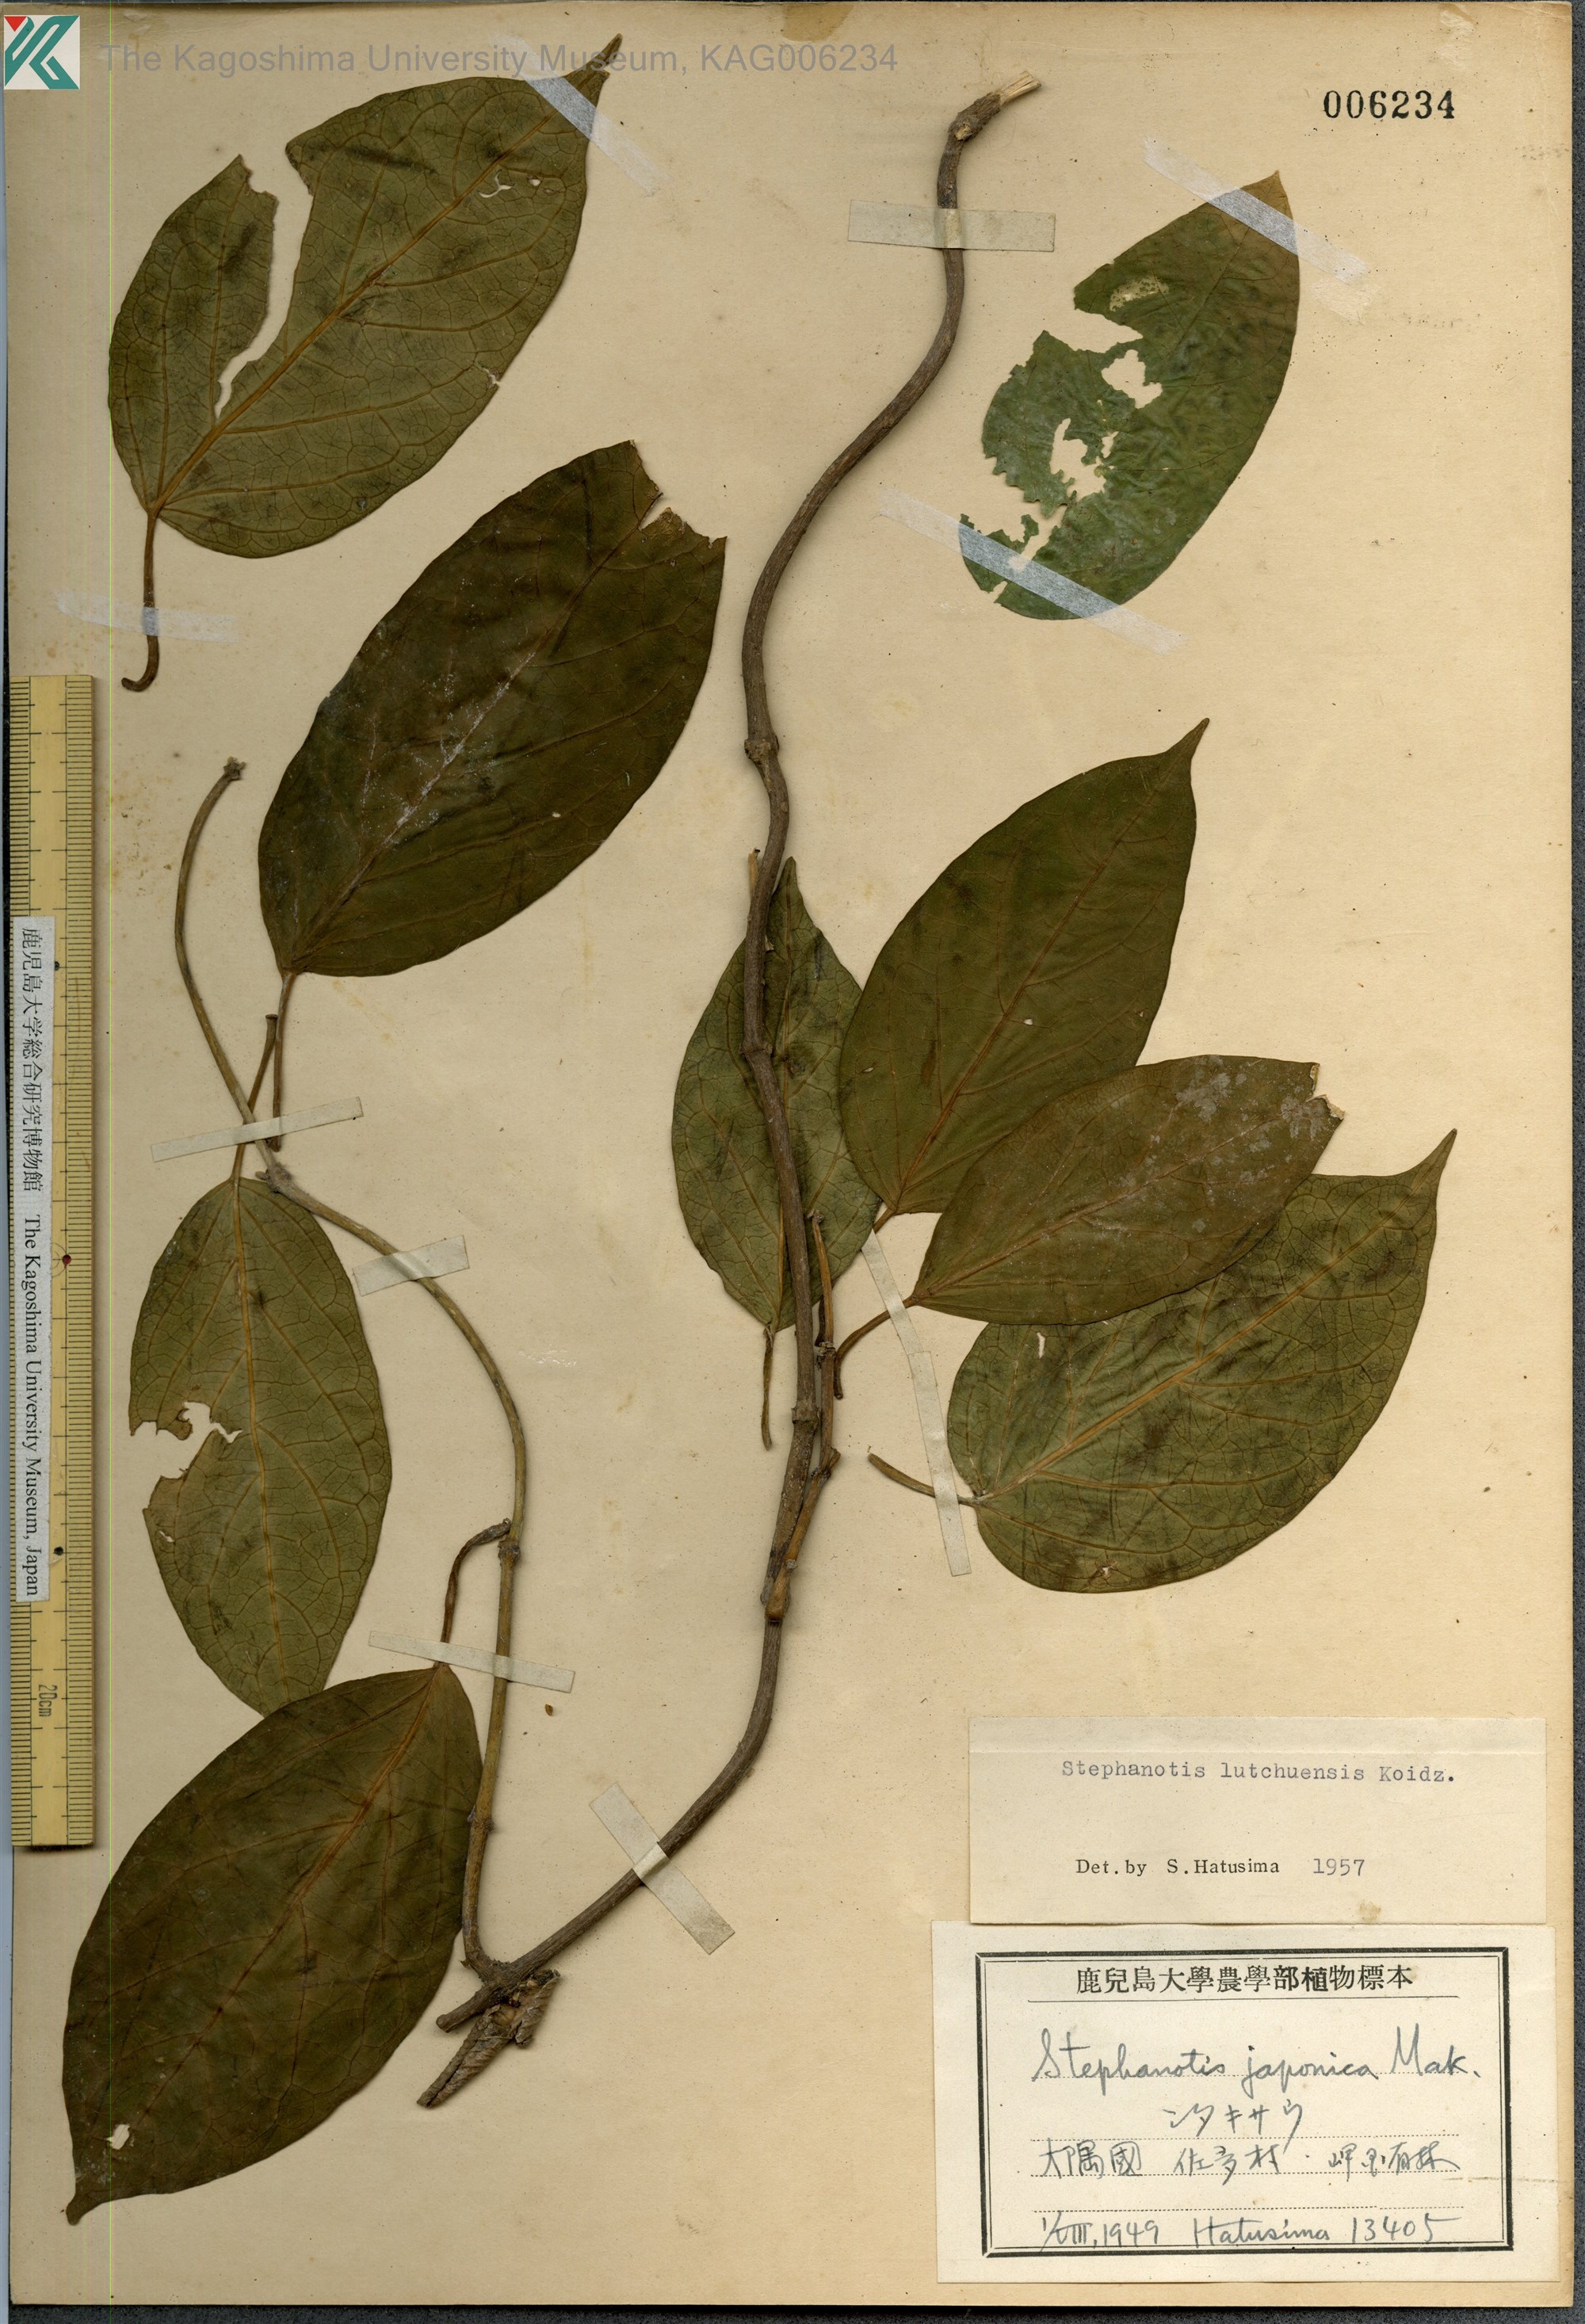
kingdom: Plantae
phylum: Tracheophyta
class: Magnoliopsida
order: Gentianales
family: Apocynaceae
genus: Jasminanthes
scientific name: Jasminanthes mucronata
